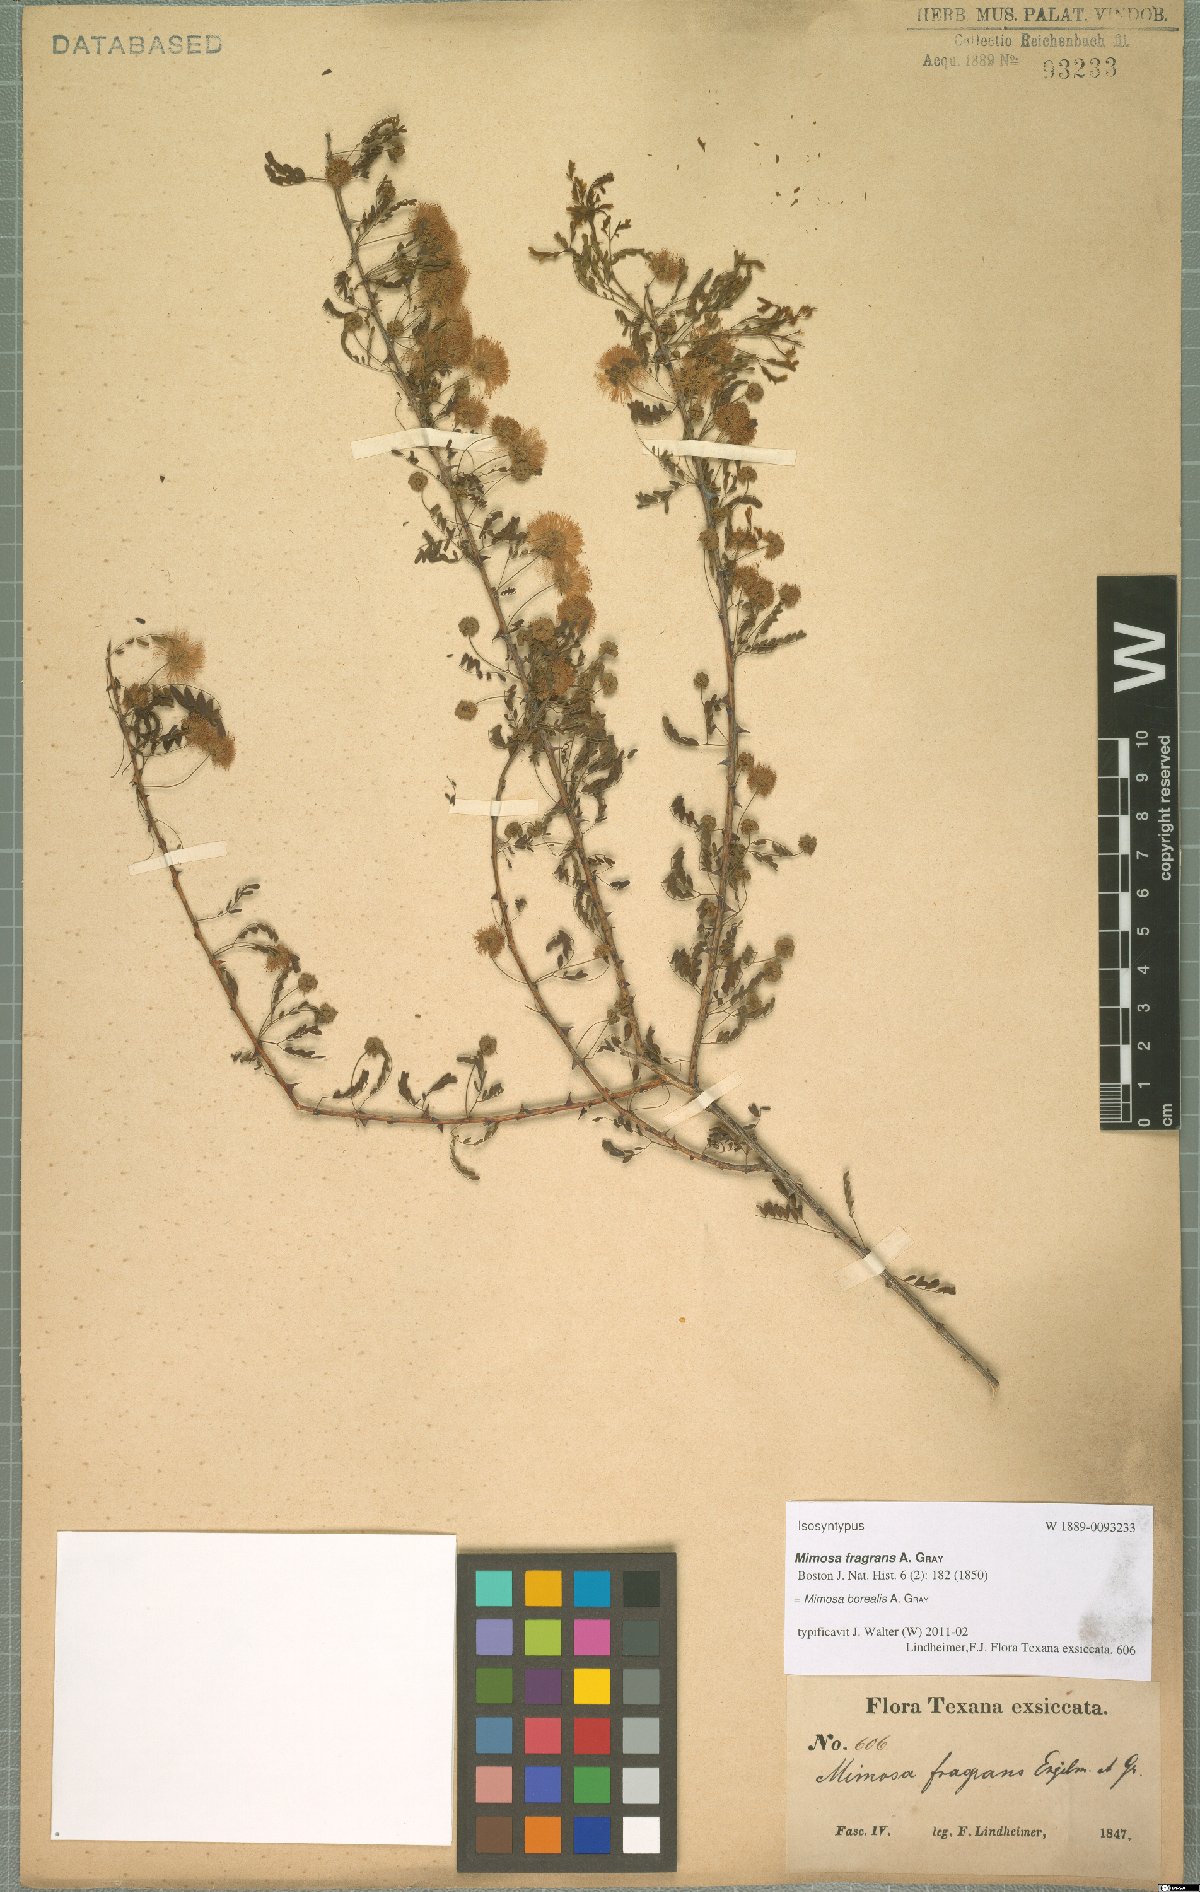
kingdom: Plantae
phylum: Tracheophyta
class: Magnoliopsida
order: Fabales
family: Fabaceae
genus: Mimosa
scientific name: Mimosa borealis
